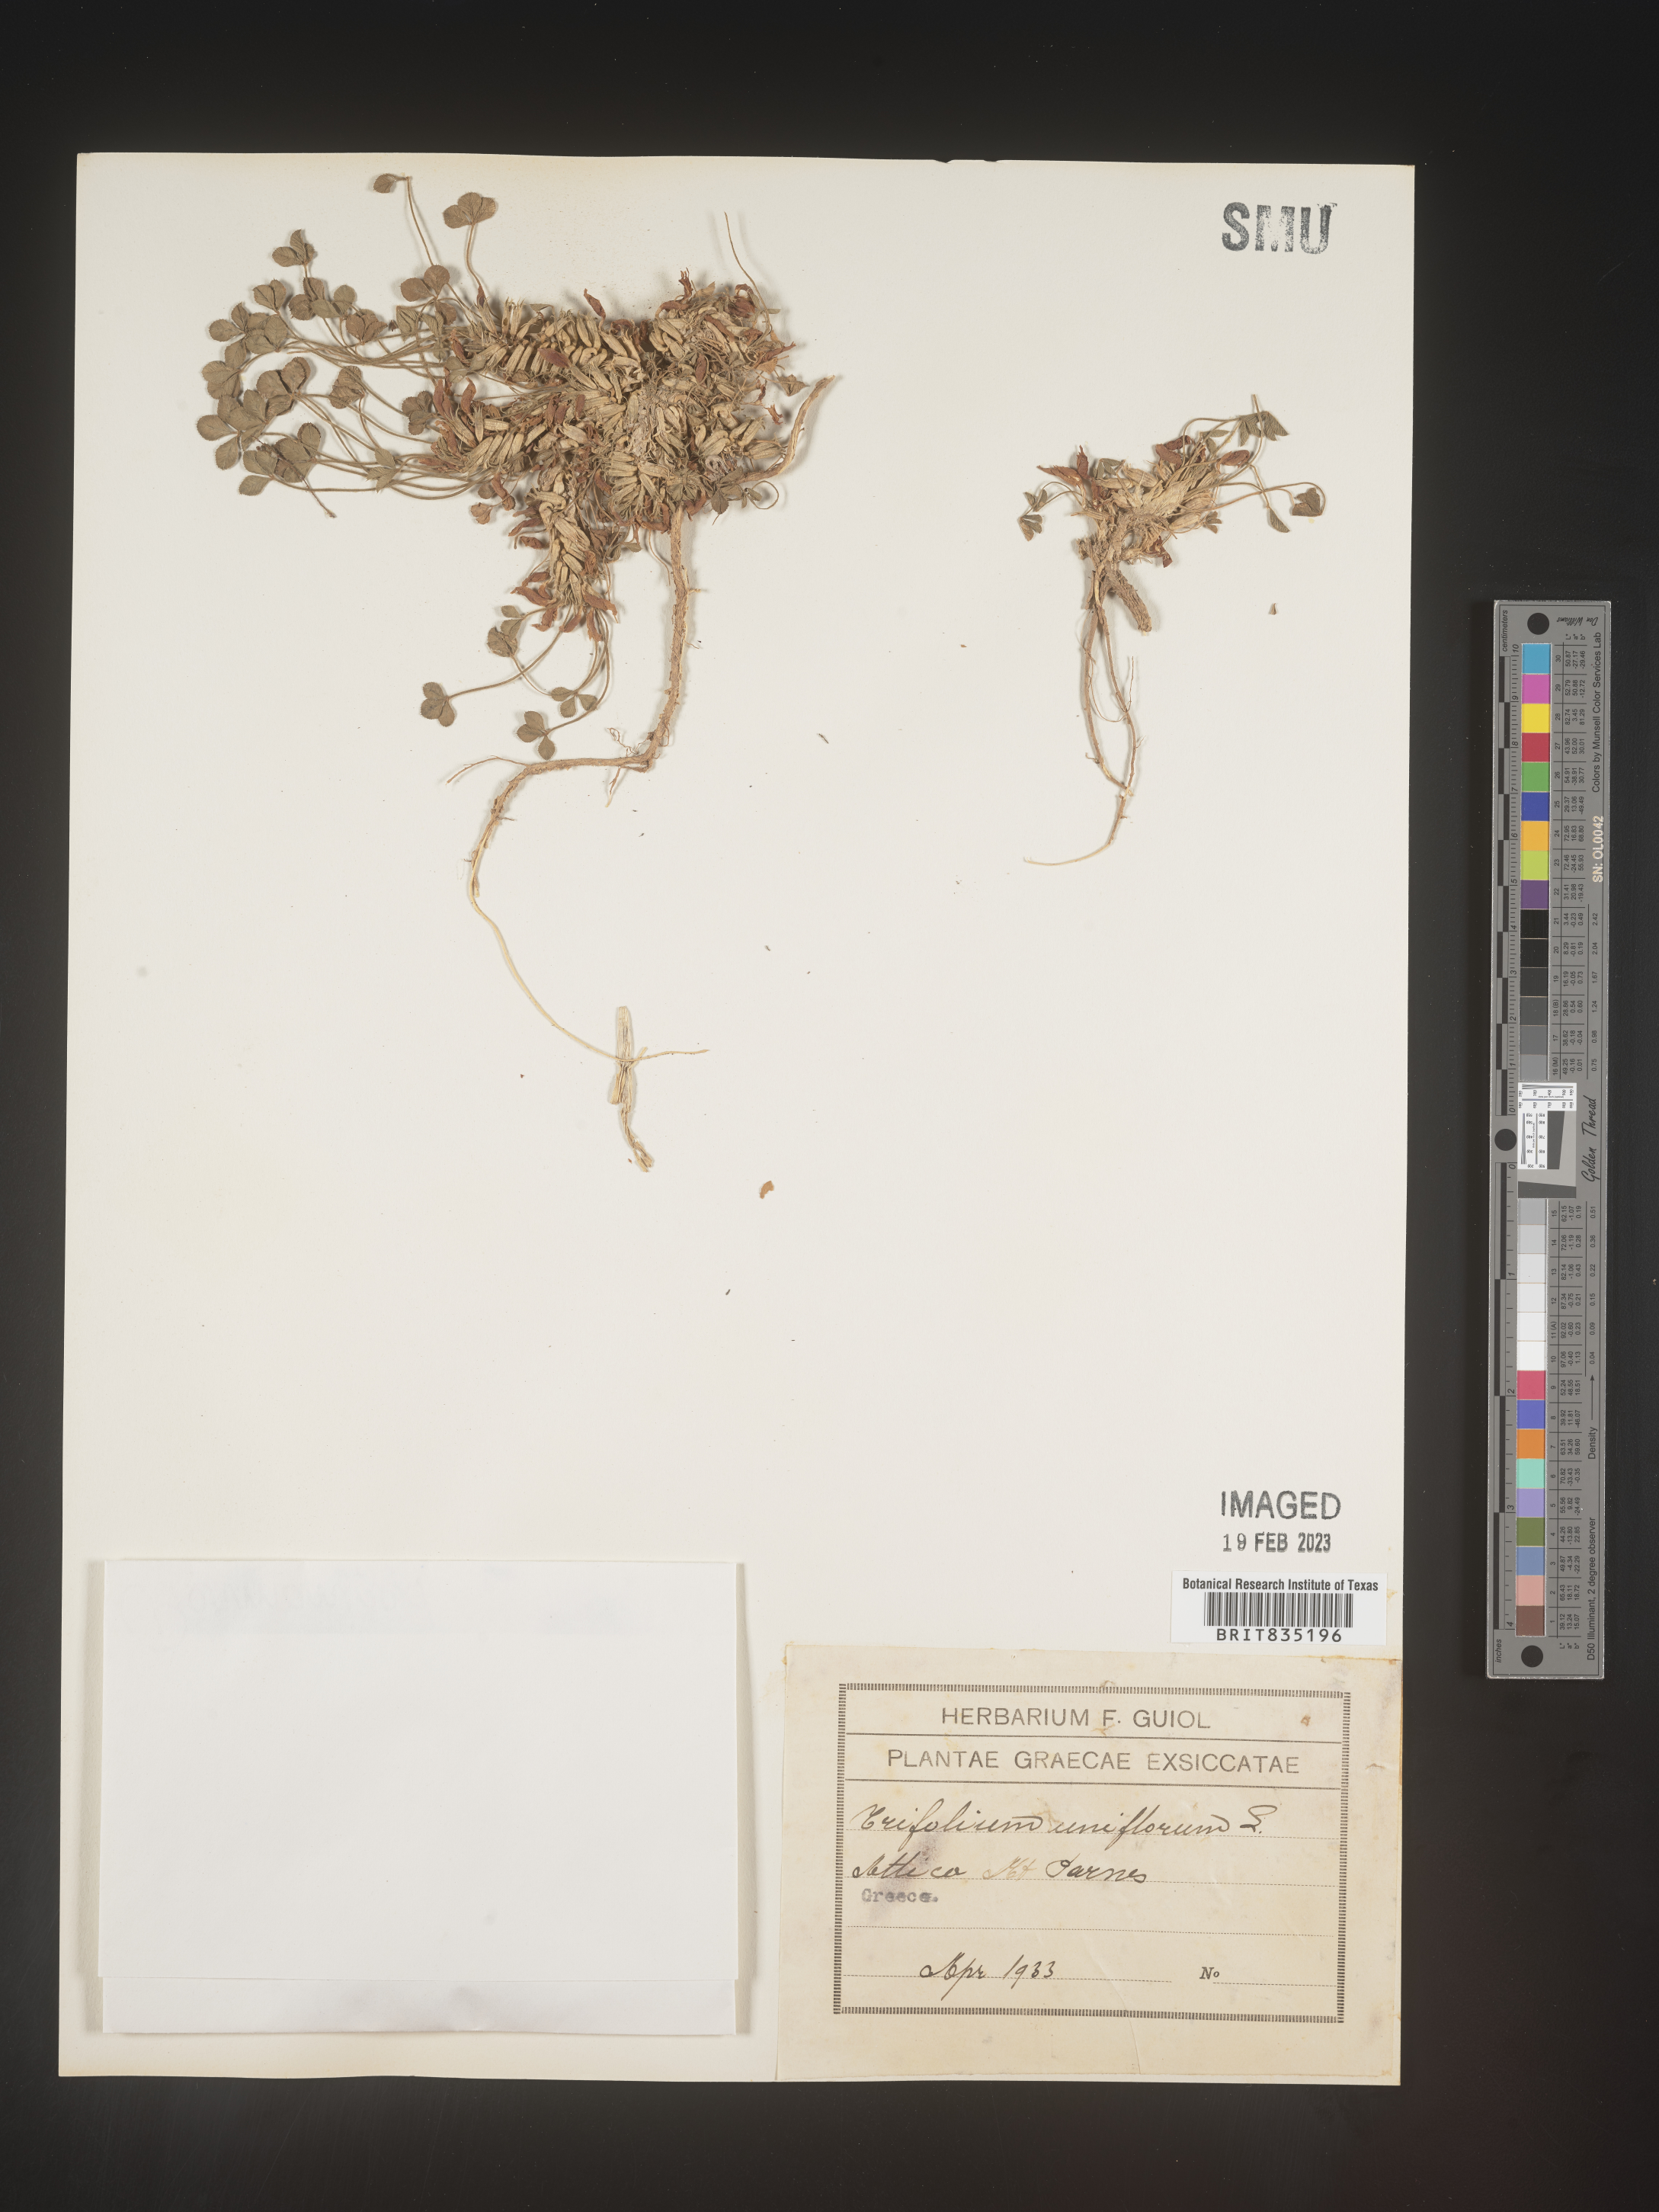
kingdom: Plantae
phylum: Tracheophyta
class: Magnoliopsida
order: Fabales
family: Fabaceae
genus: Trifolium
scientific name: Trifolium
